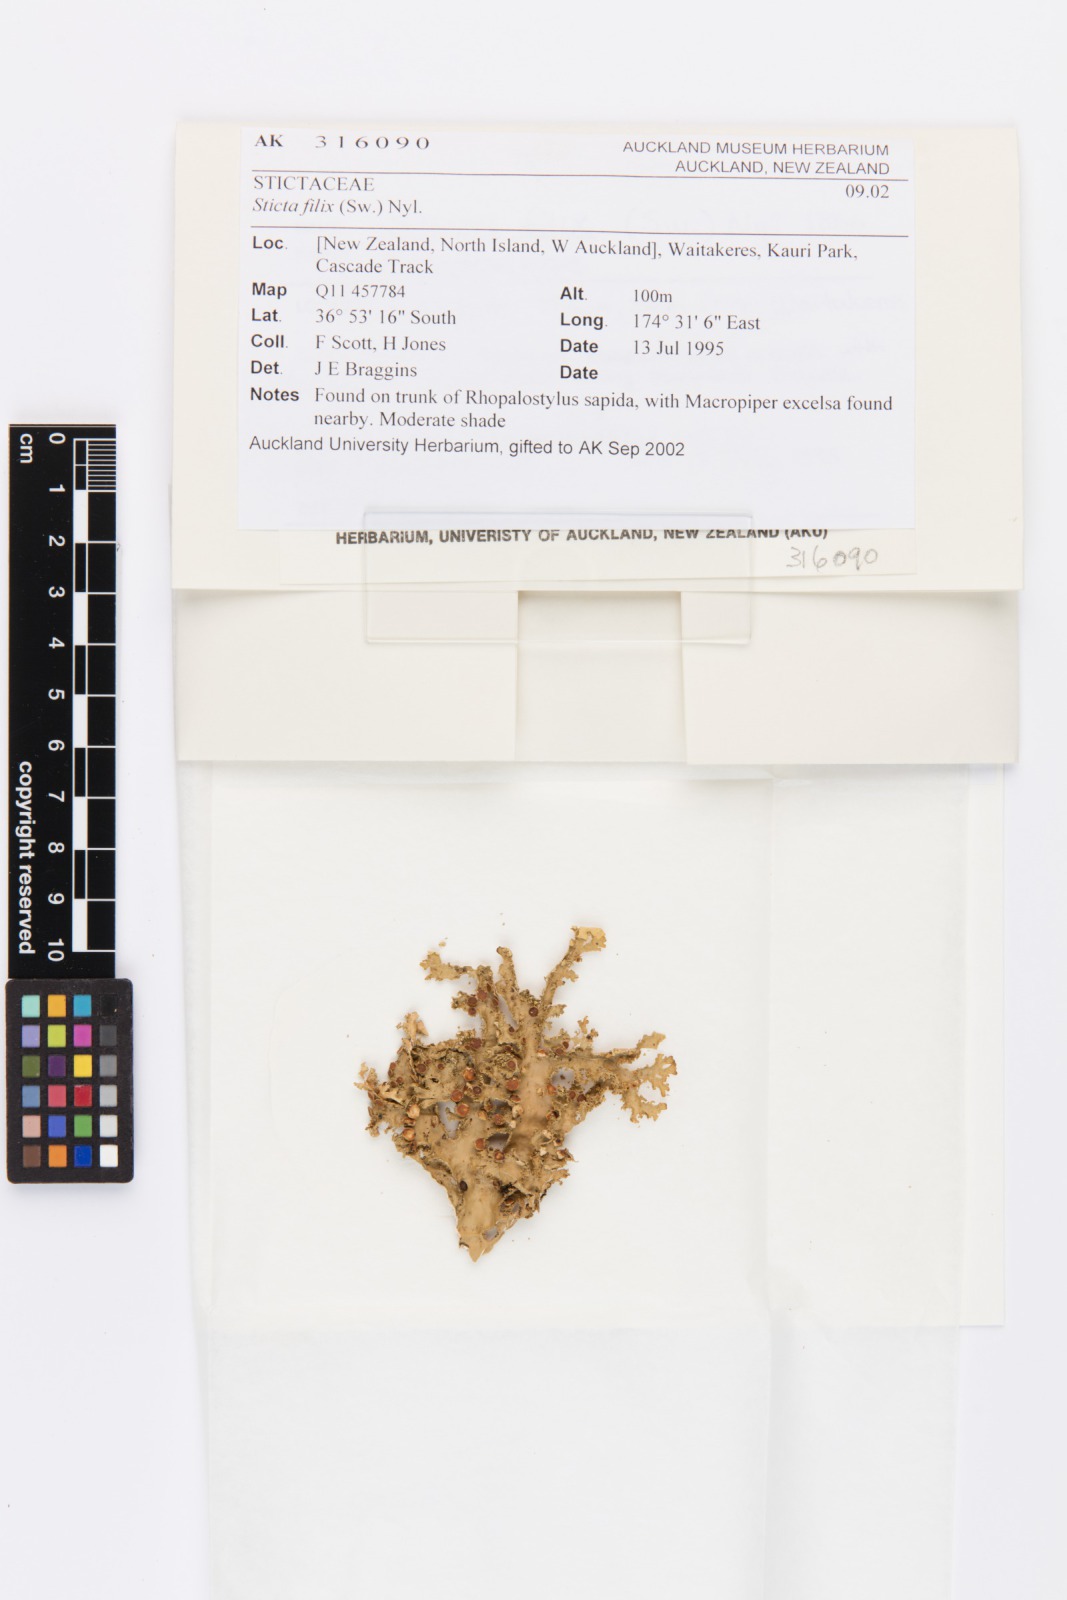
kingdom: Fungi
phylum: Ascomycota
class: Lecanoromycetes
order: Peltigerales
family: Lobariaceae
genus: Pseudocyphellaria
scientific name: Pseudocyphellaria chloroleuca
